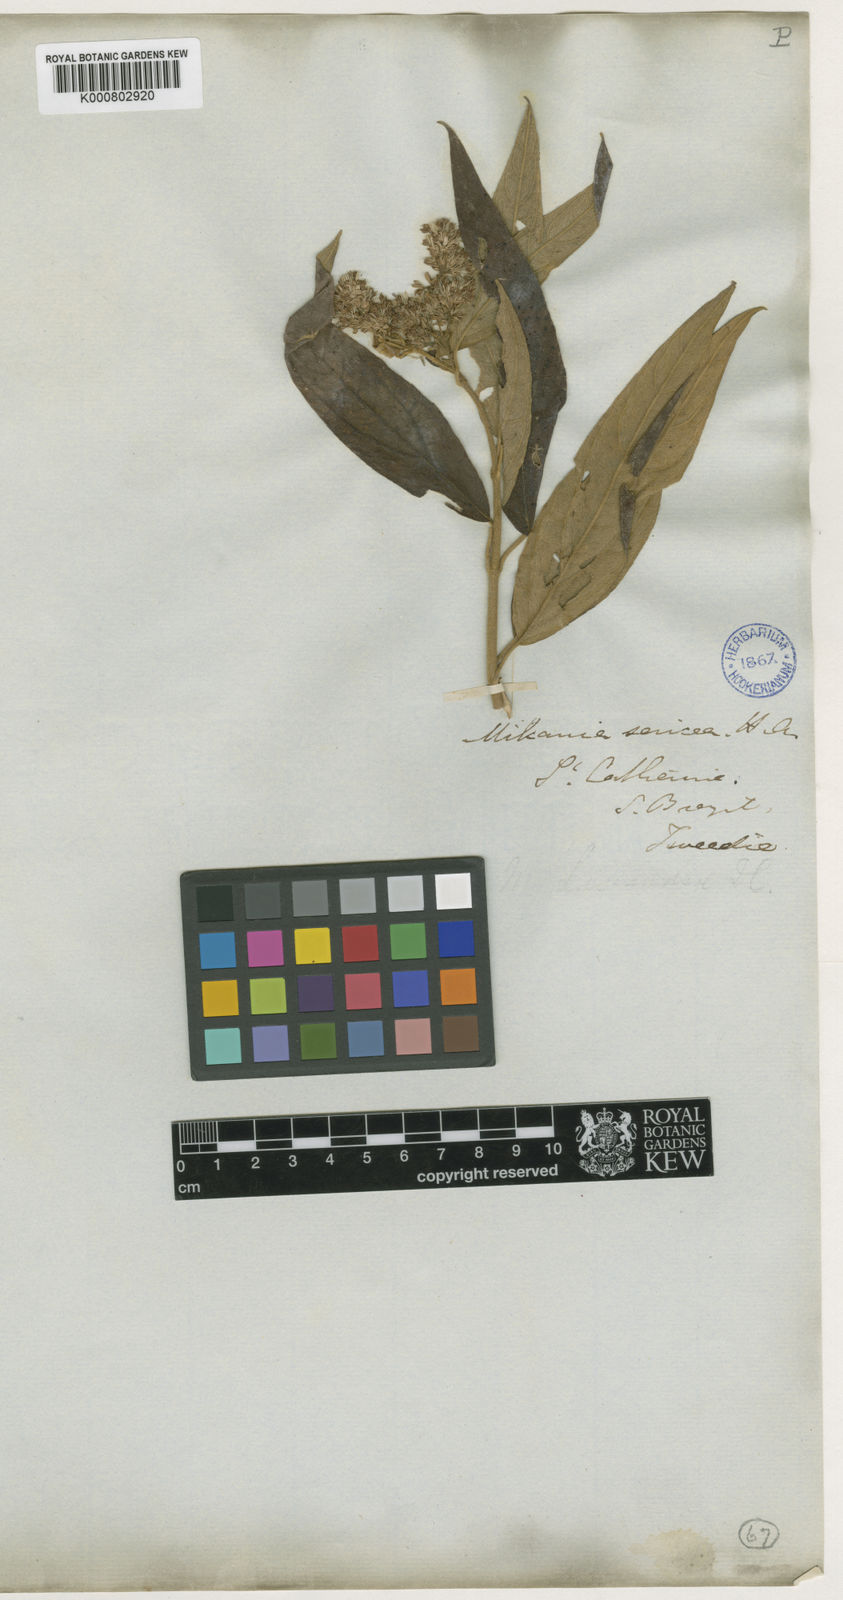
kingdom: Plantae
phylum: Tracheophyta
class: Magnoliopsida
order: Asterales
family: Asteraceae
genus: Mikania
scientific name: Mikania sericea
